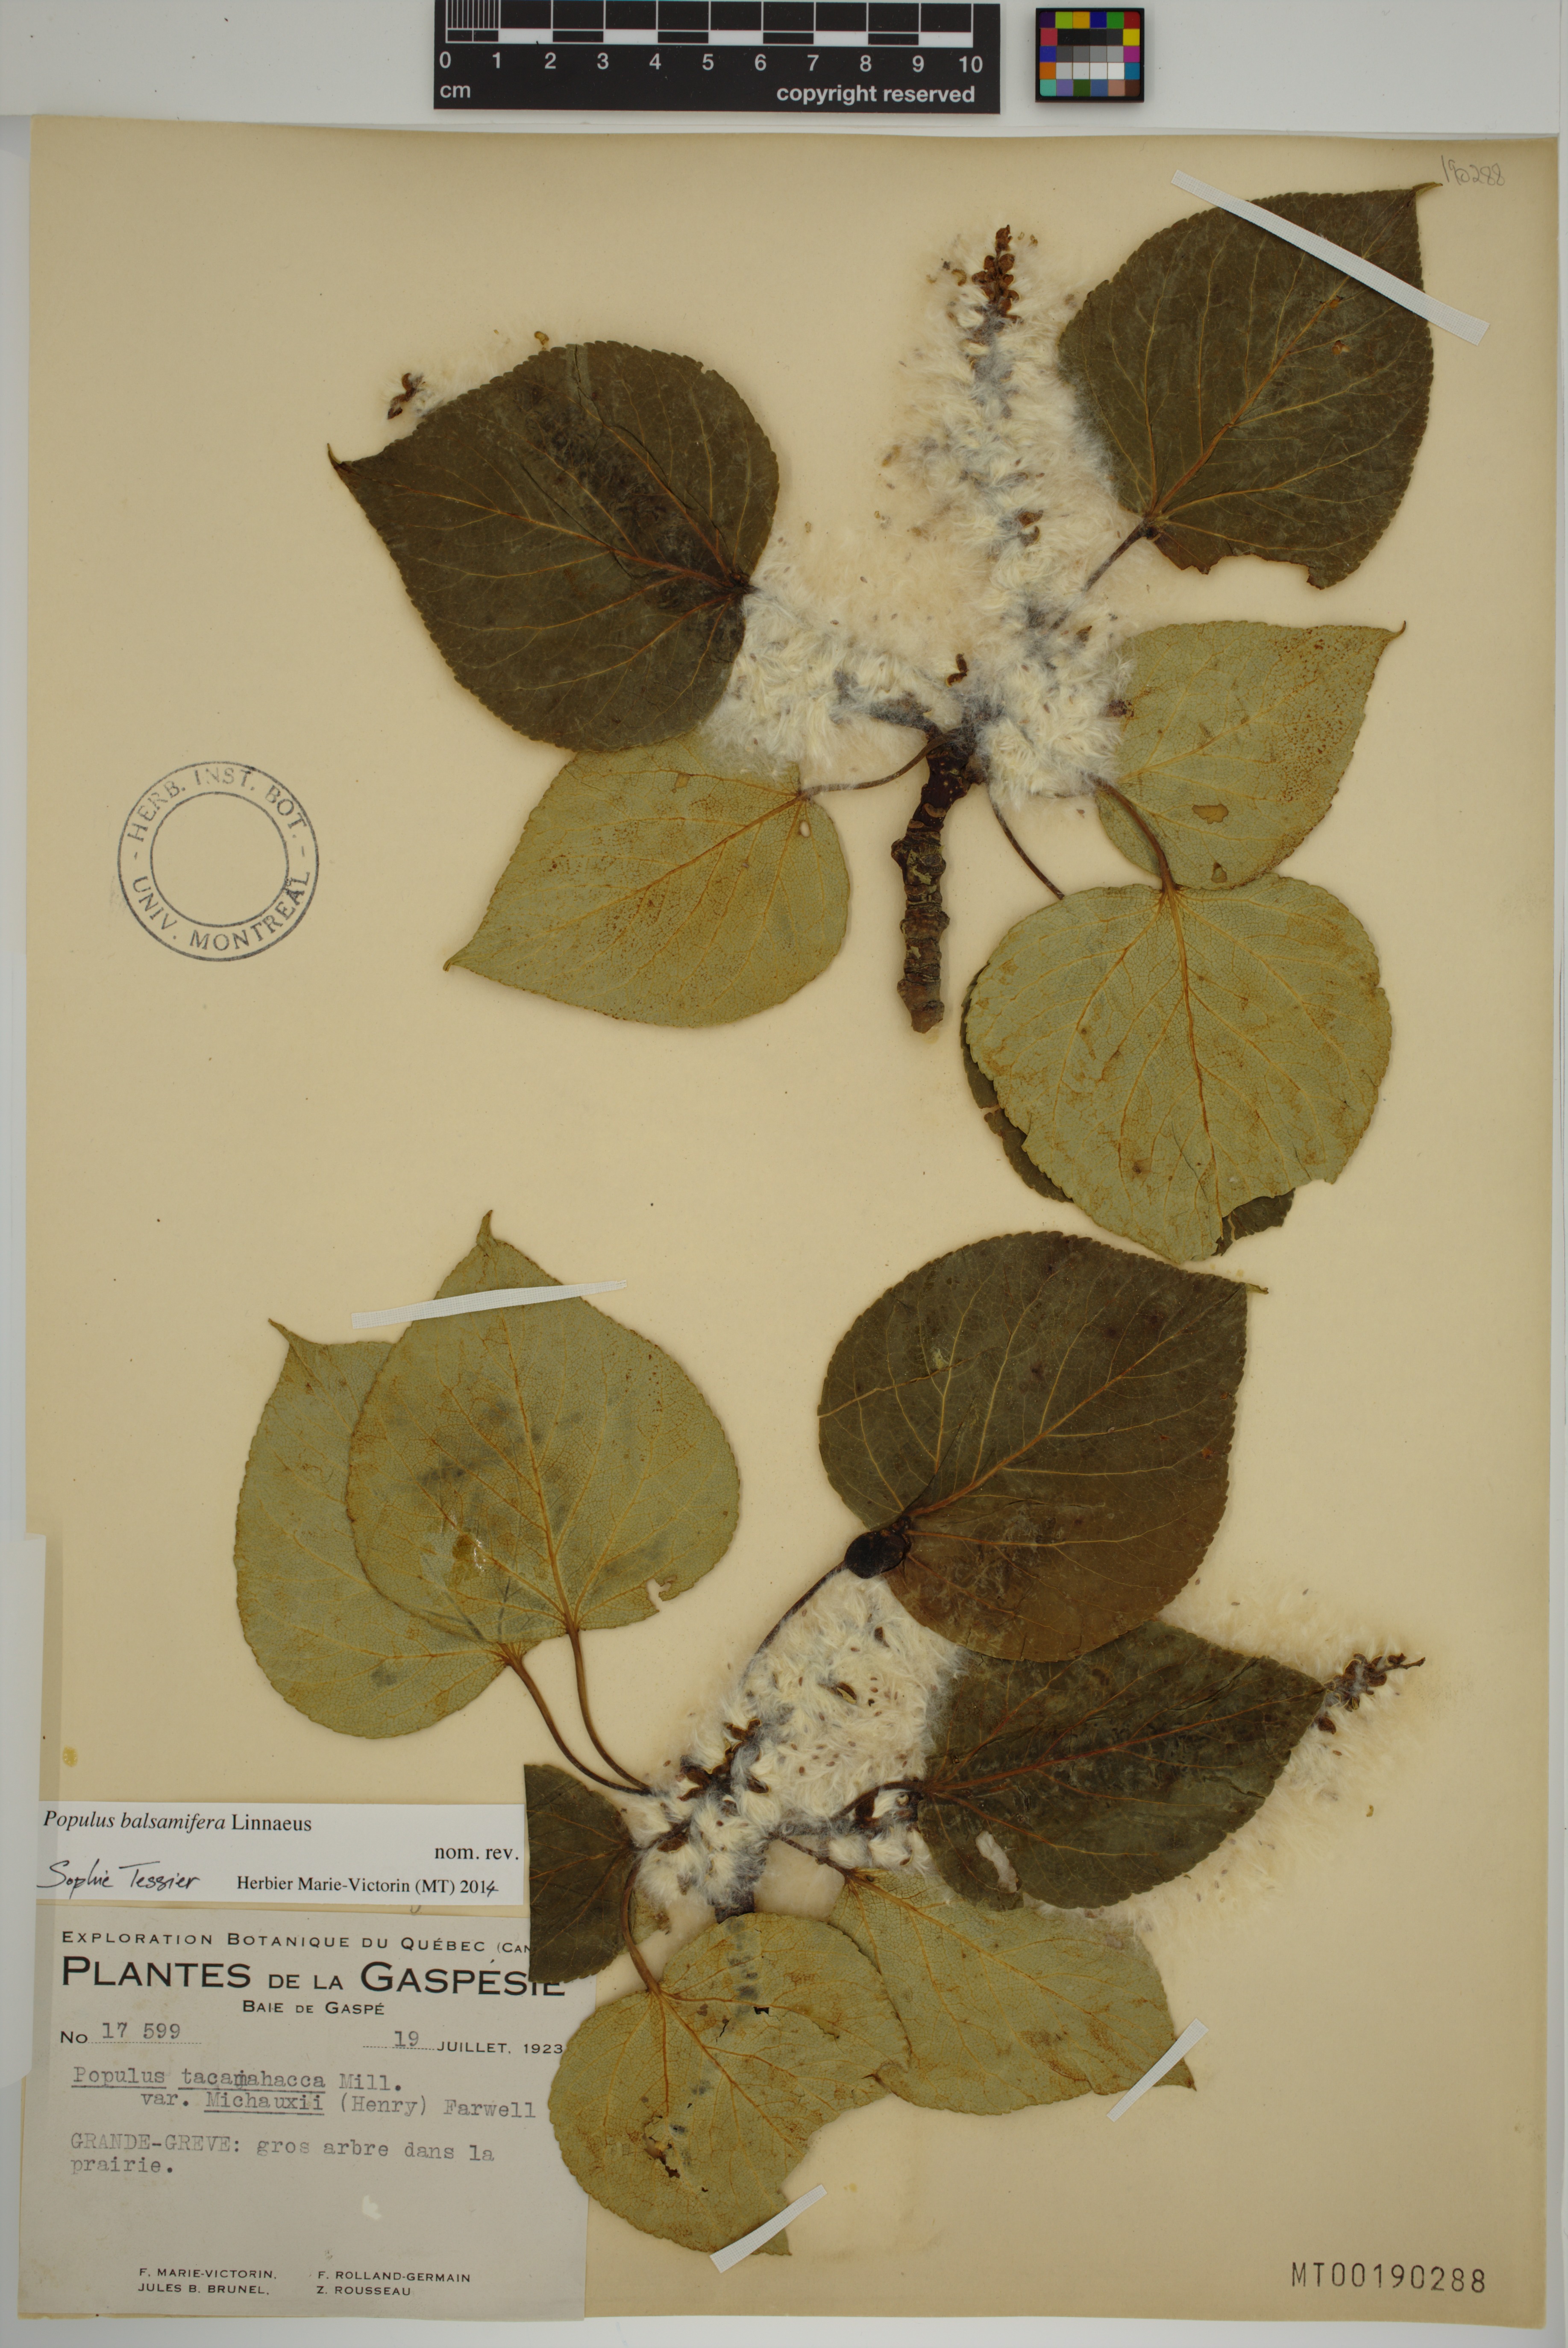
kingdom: Plantae
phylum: Tracheophyta
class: Magnoliopsida
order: Malpighiales
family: Salicaceae
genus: Populus
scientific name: Populus balsamifera
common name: Balsam poplar
